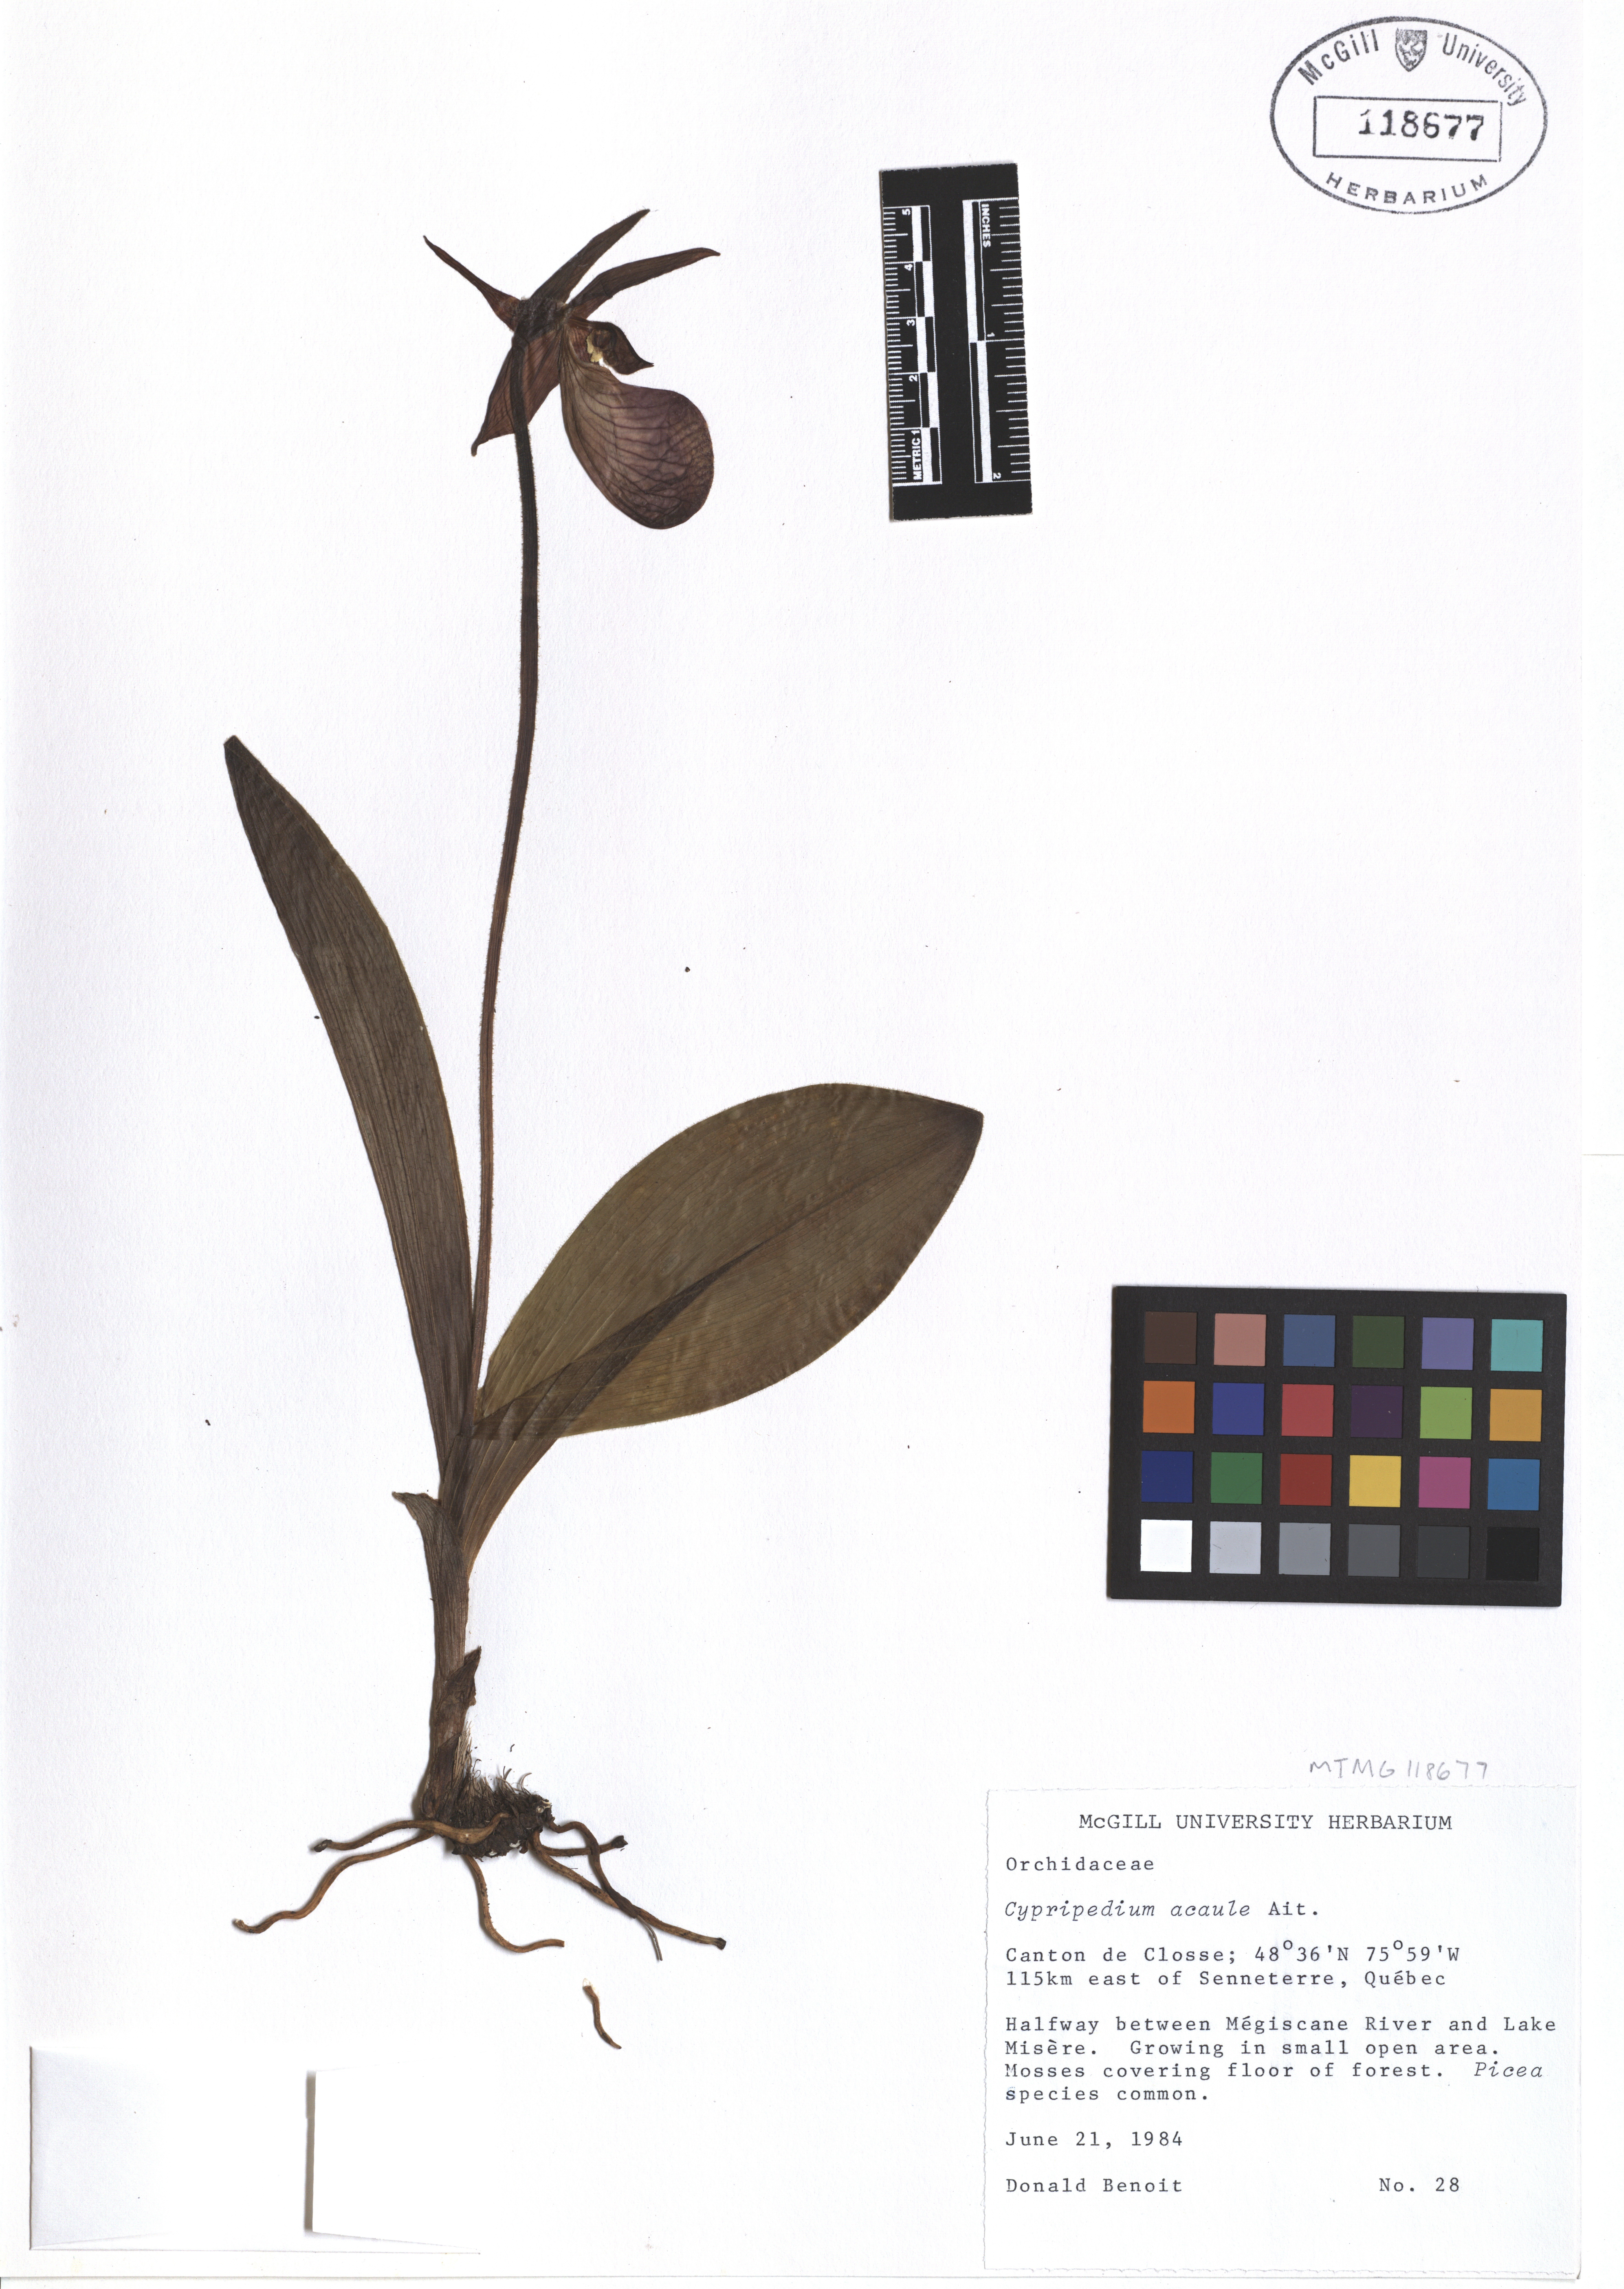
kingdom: Plantae
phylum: Tracheophyta
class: Liliopsida
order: Asparagales
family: Orchidaceae
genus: Cypripedium
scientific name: Cypripedium acaule
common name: Pink lady's-slipper
